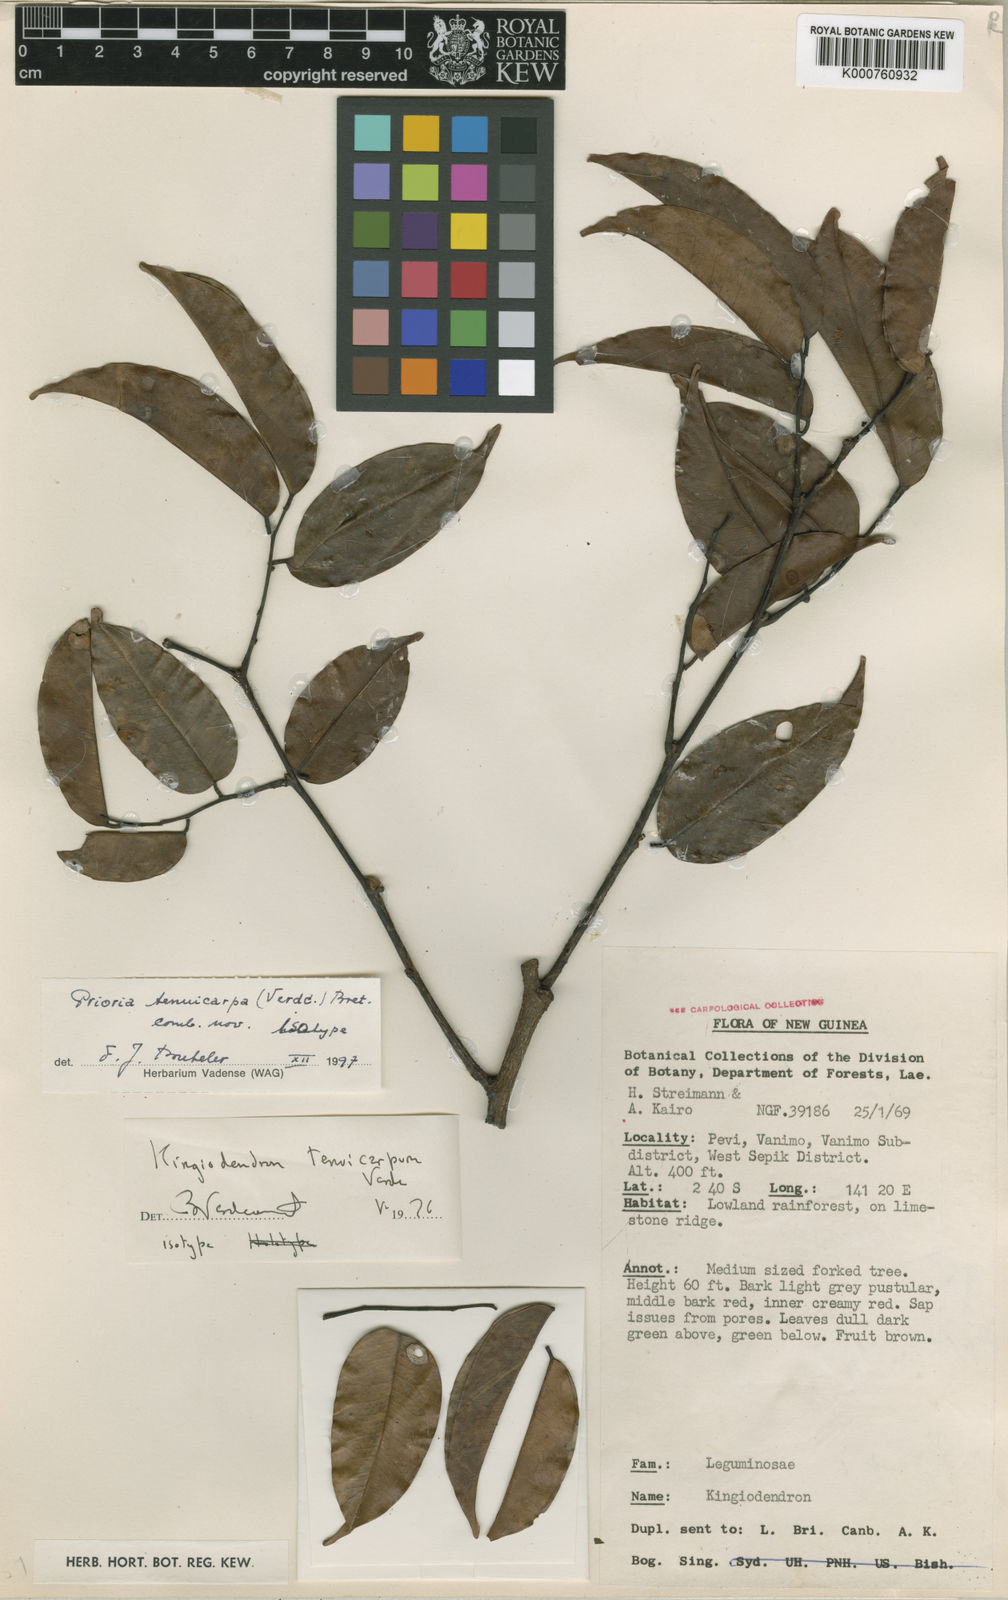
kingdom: Plantae
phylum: Tracheophyta
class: Magnoliopsida
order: Fabales
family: Fabaceae
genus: Prioria
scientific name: Prioria tenuicarpa
